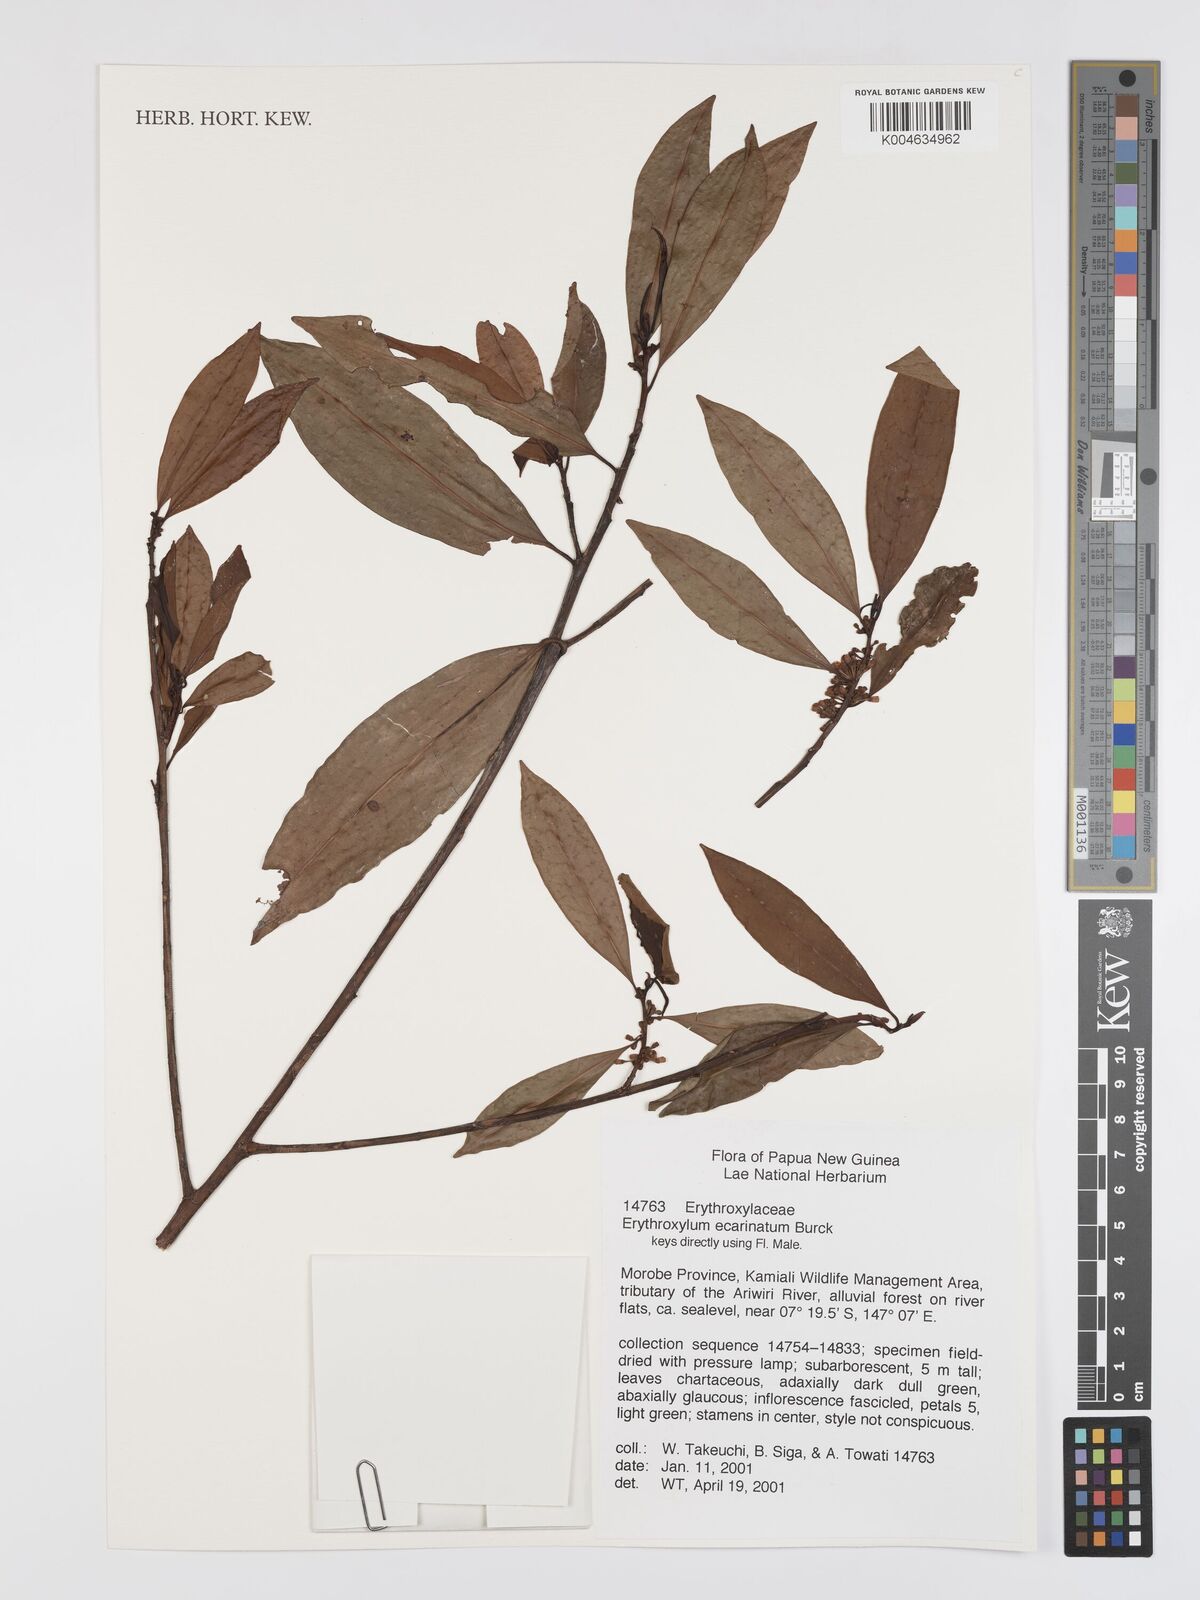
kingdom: Plantae
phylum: Tracheophyta
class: Magnoliopsida
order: Malpighiales
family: Erythroxylaceae
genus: Erythroxylum
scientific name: Erythroxylum ecarinatum
